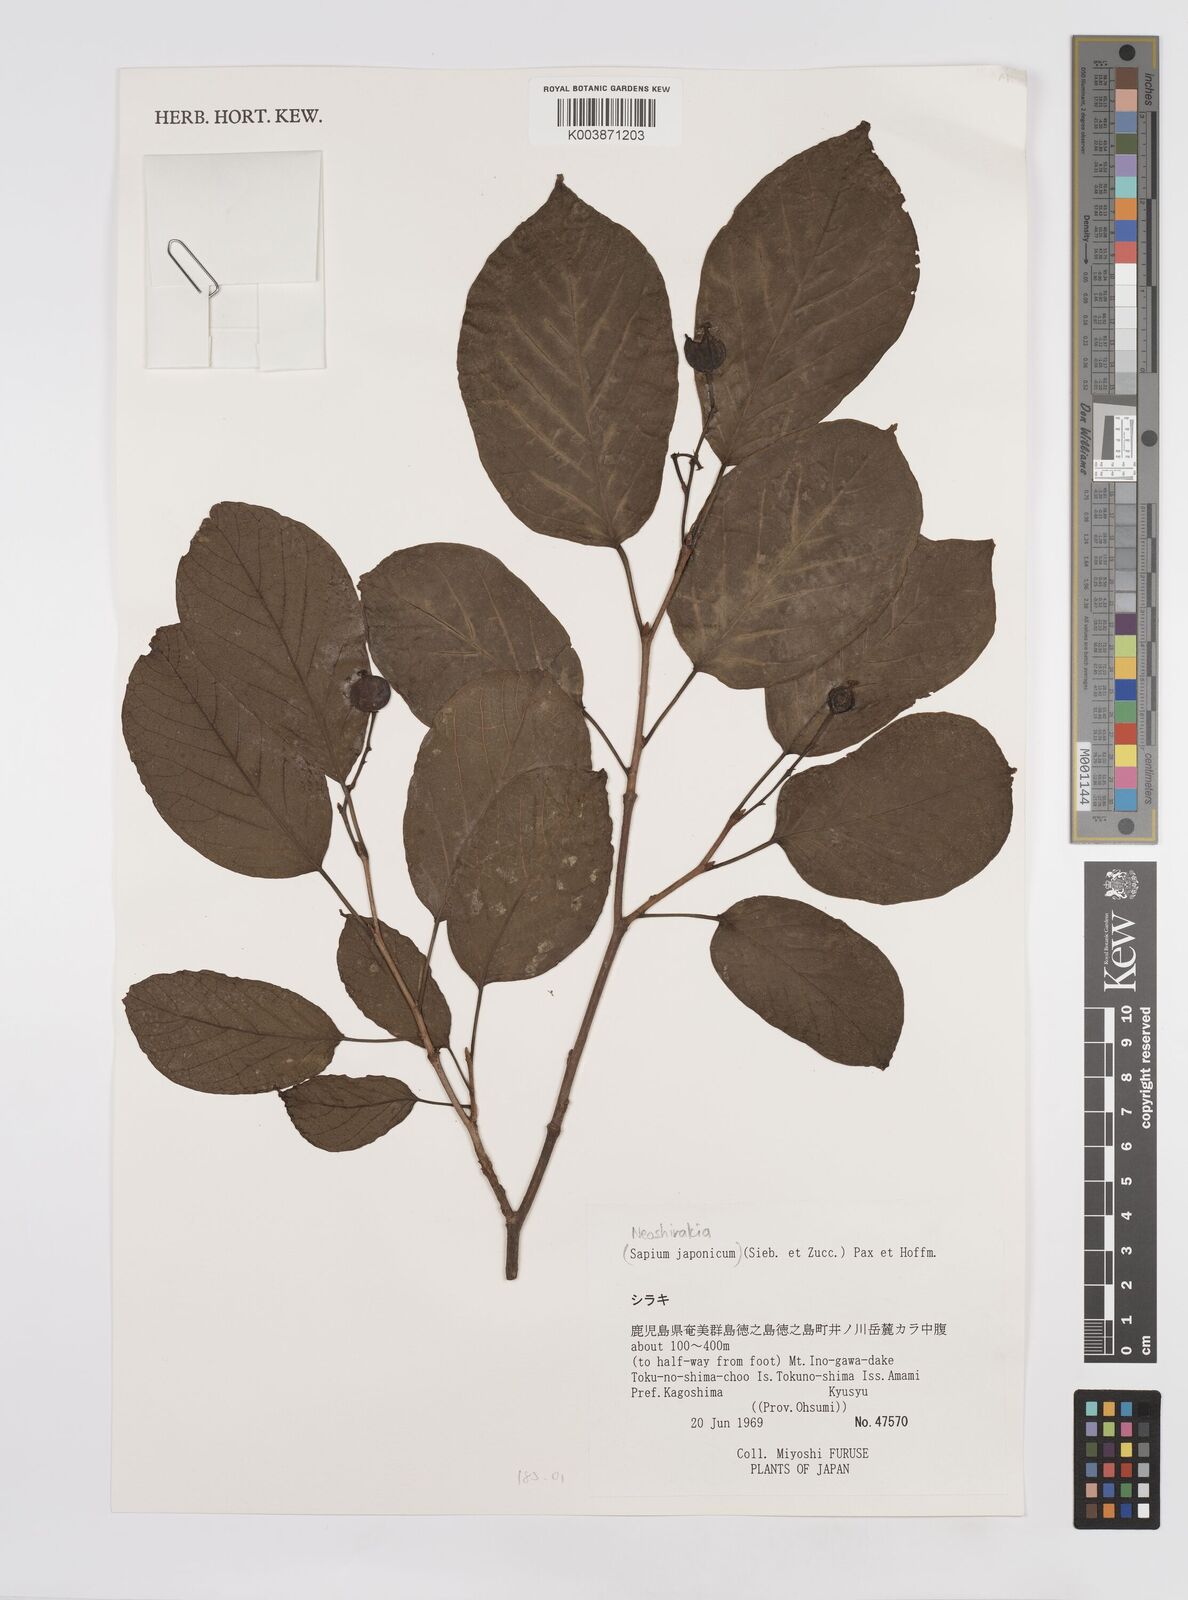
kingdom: Plantae
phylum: Tracheophyta
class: Magnoliopsida
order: Malpighiales
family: Euphorbiaceae
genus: Neoshirakia
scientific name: Neoshirakia japonica
